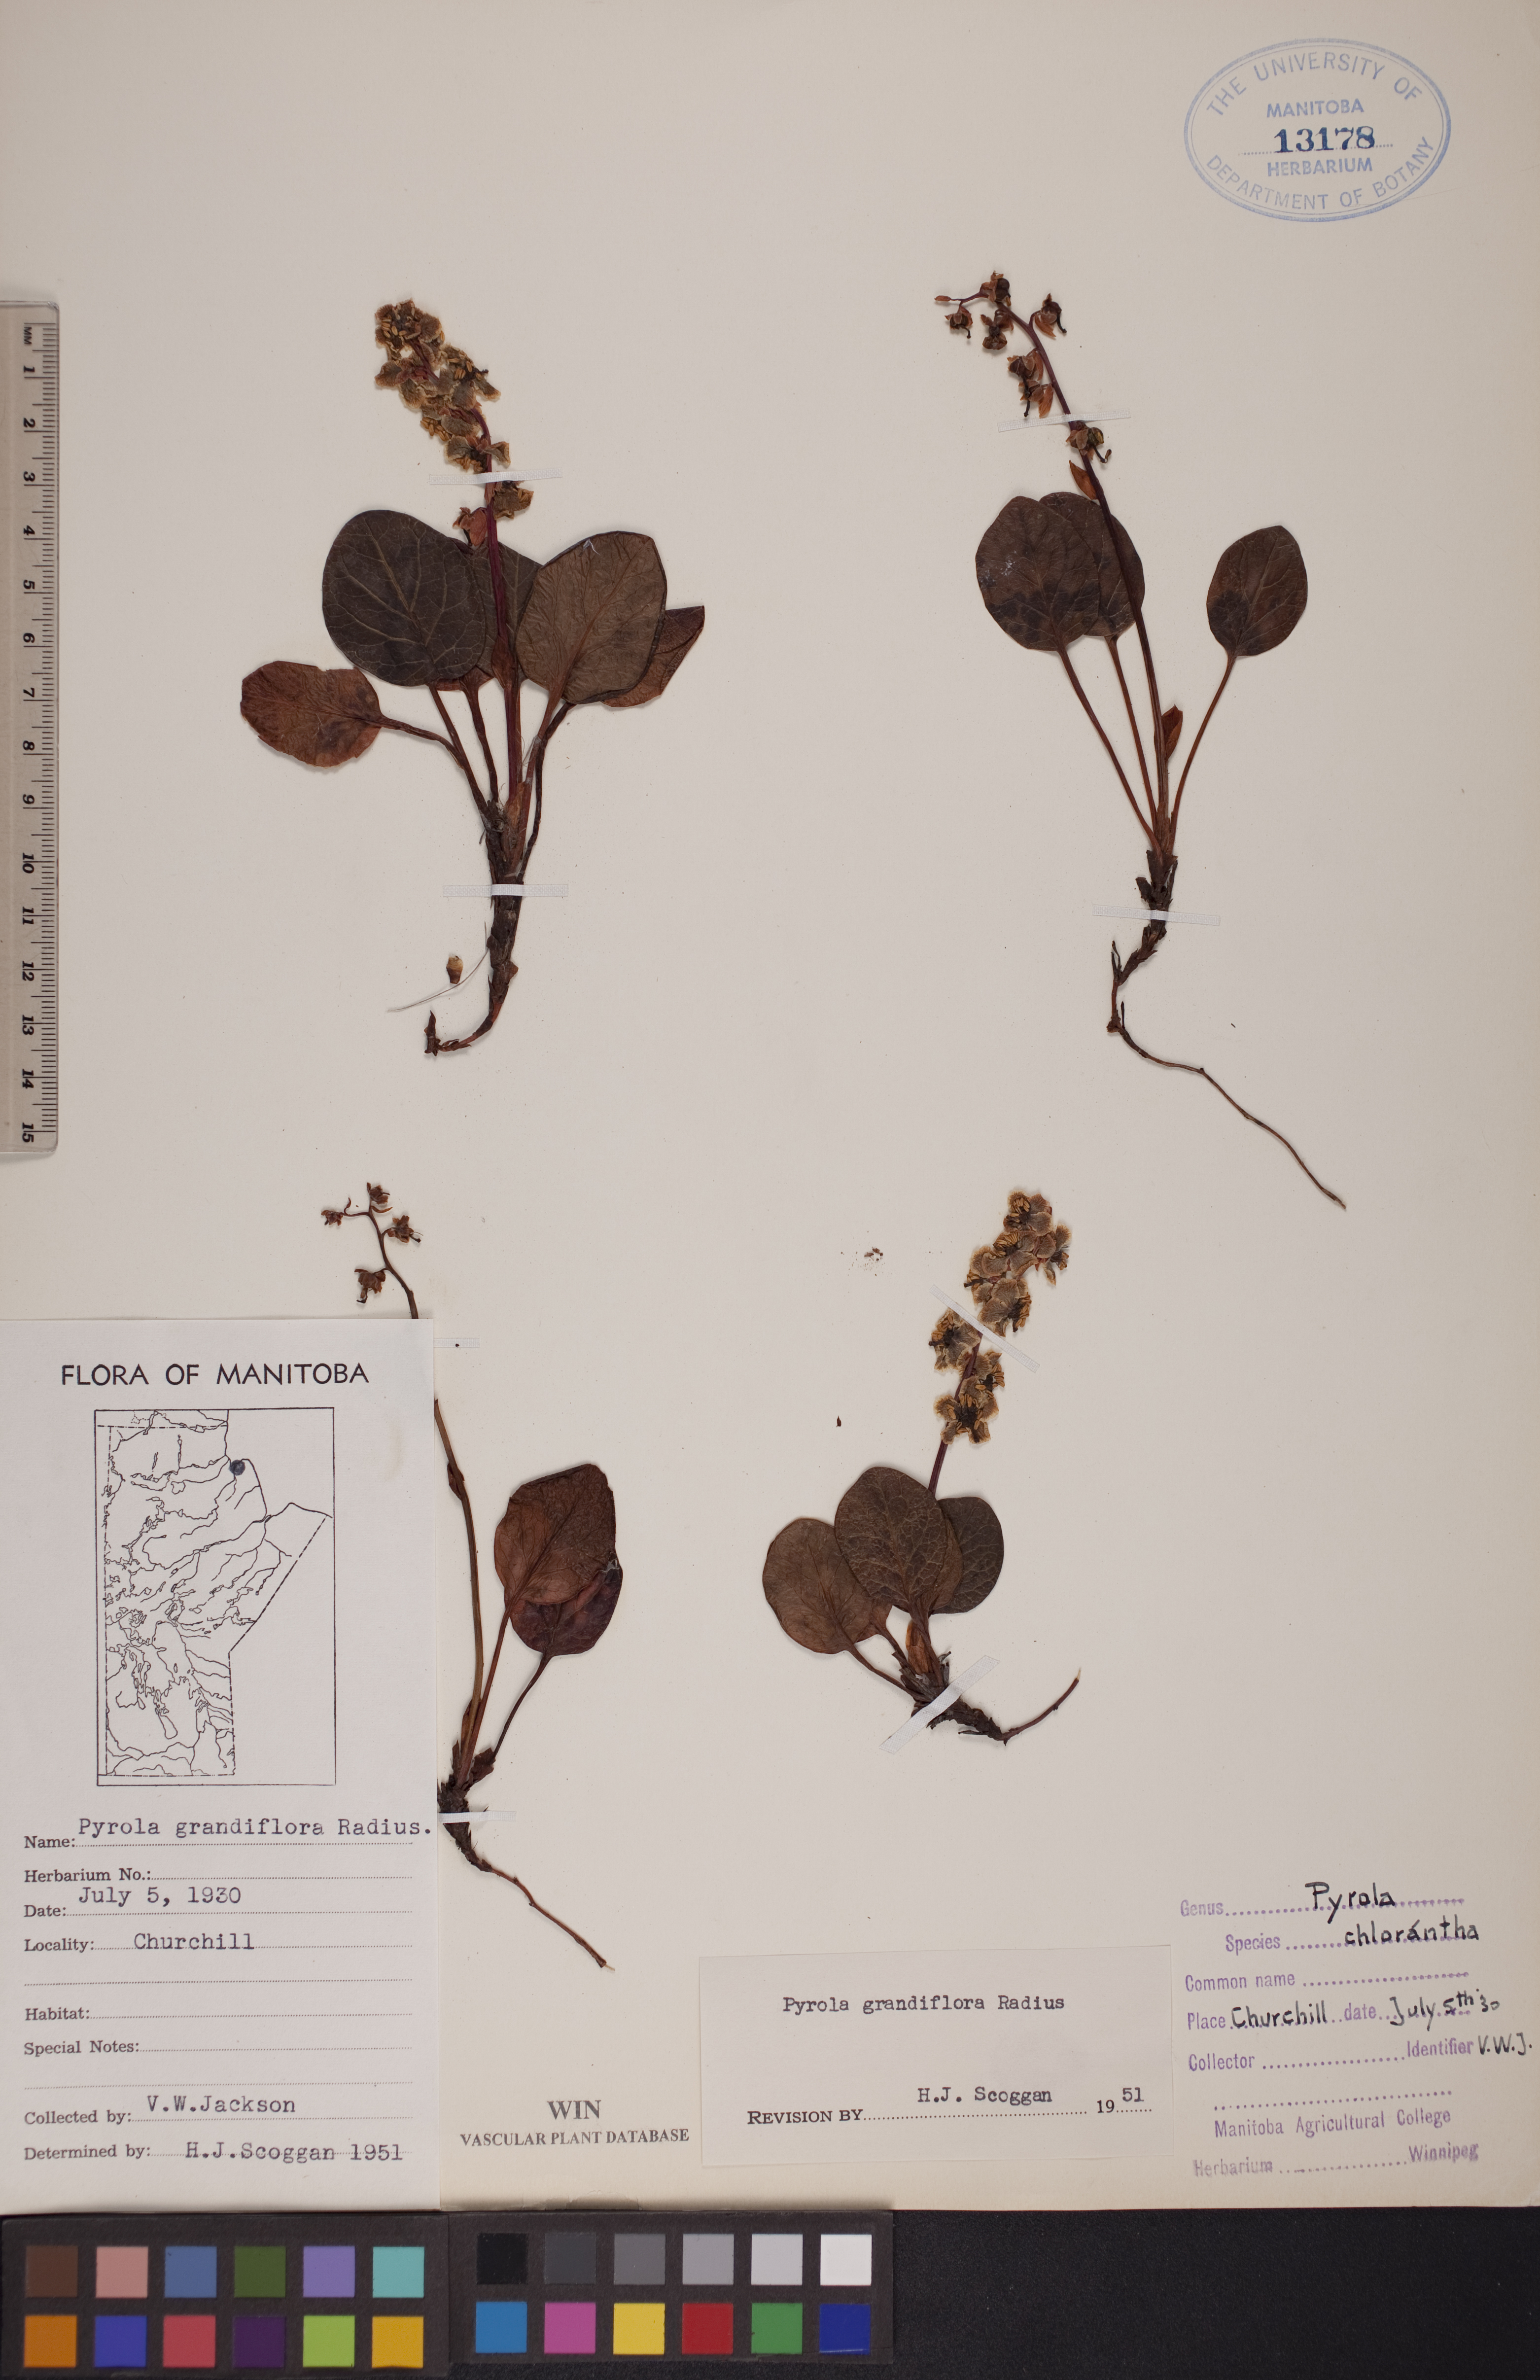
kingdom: Plantae
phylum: Tracheophyta
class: Magnoliopsida
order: Ericales
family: Ericaceae
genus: Pyrola
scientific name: Pyrola grandiflora
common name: Arctic pyrola
